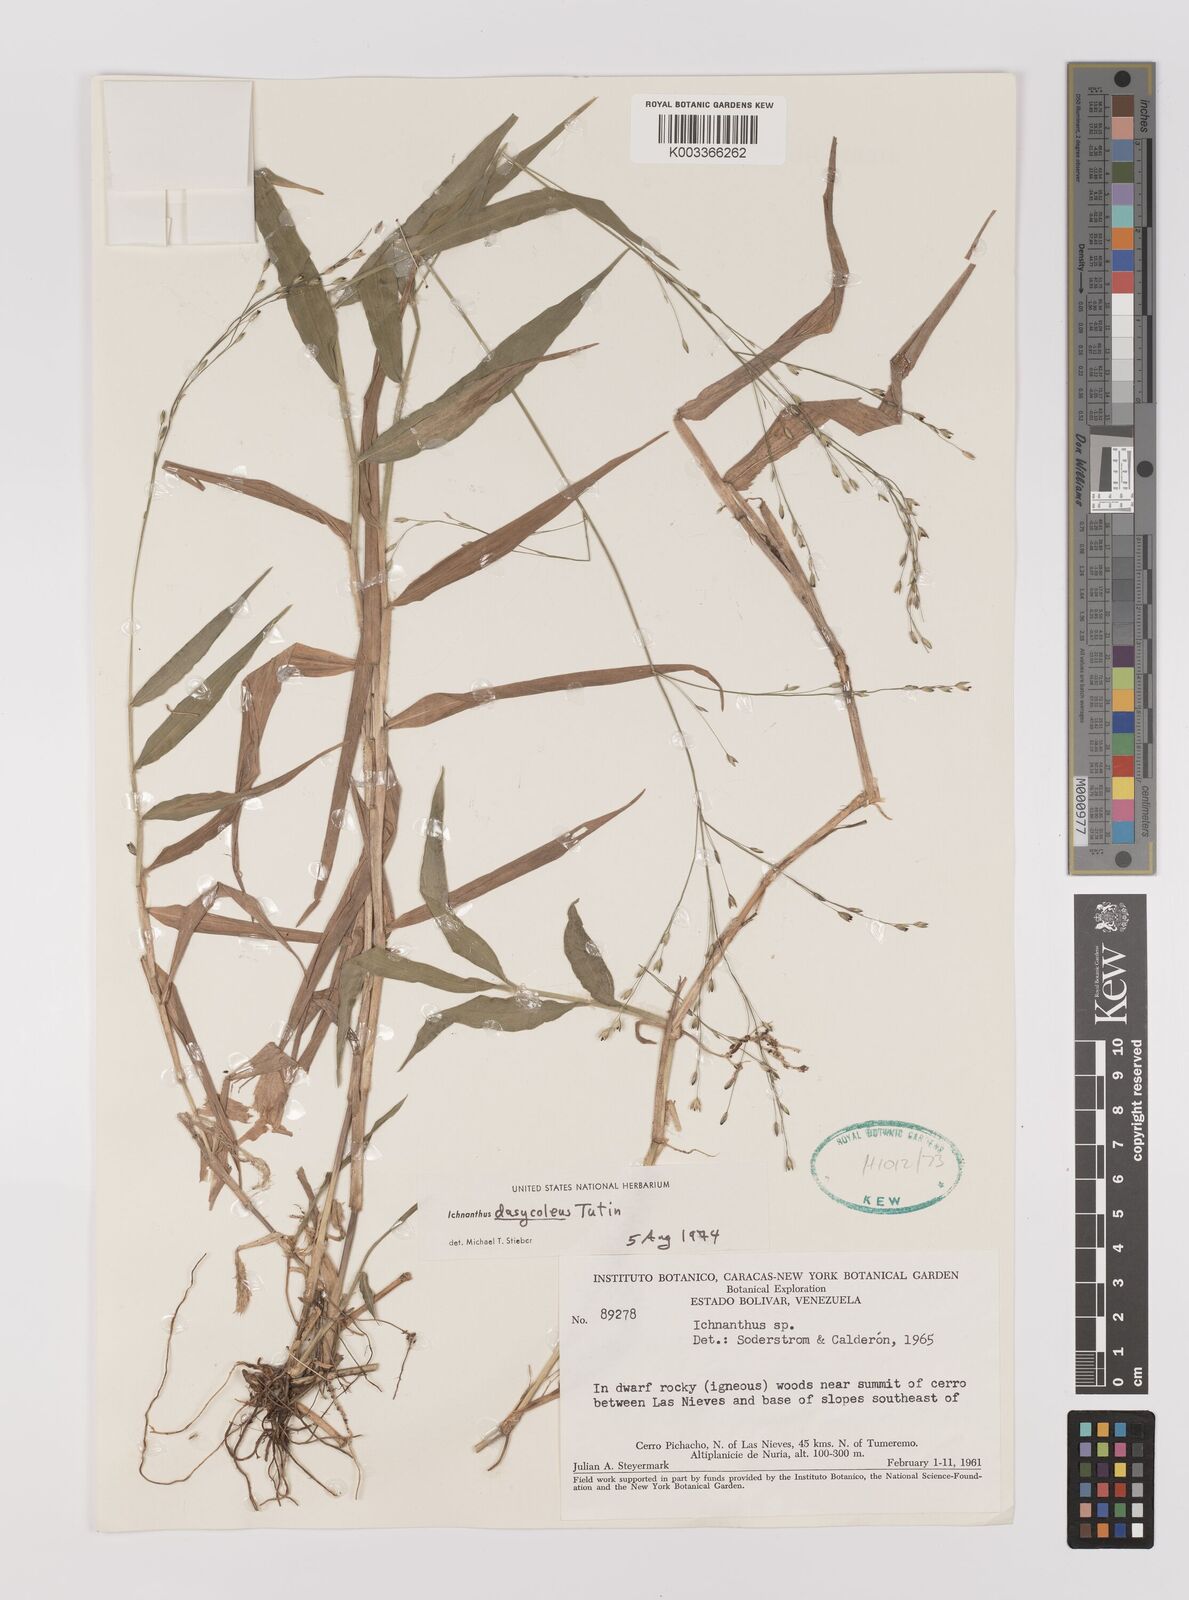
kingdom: Plantae
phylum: Tracheophyta
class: Liliopsida
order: Poales
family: Poaceae
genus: Ichnanthus
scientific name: Ichnanthus dasycoleus
